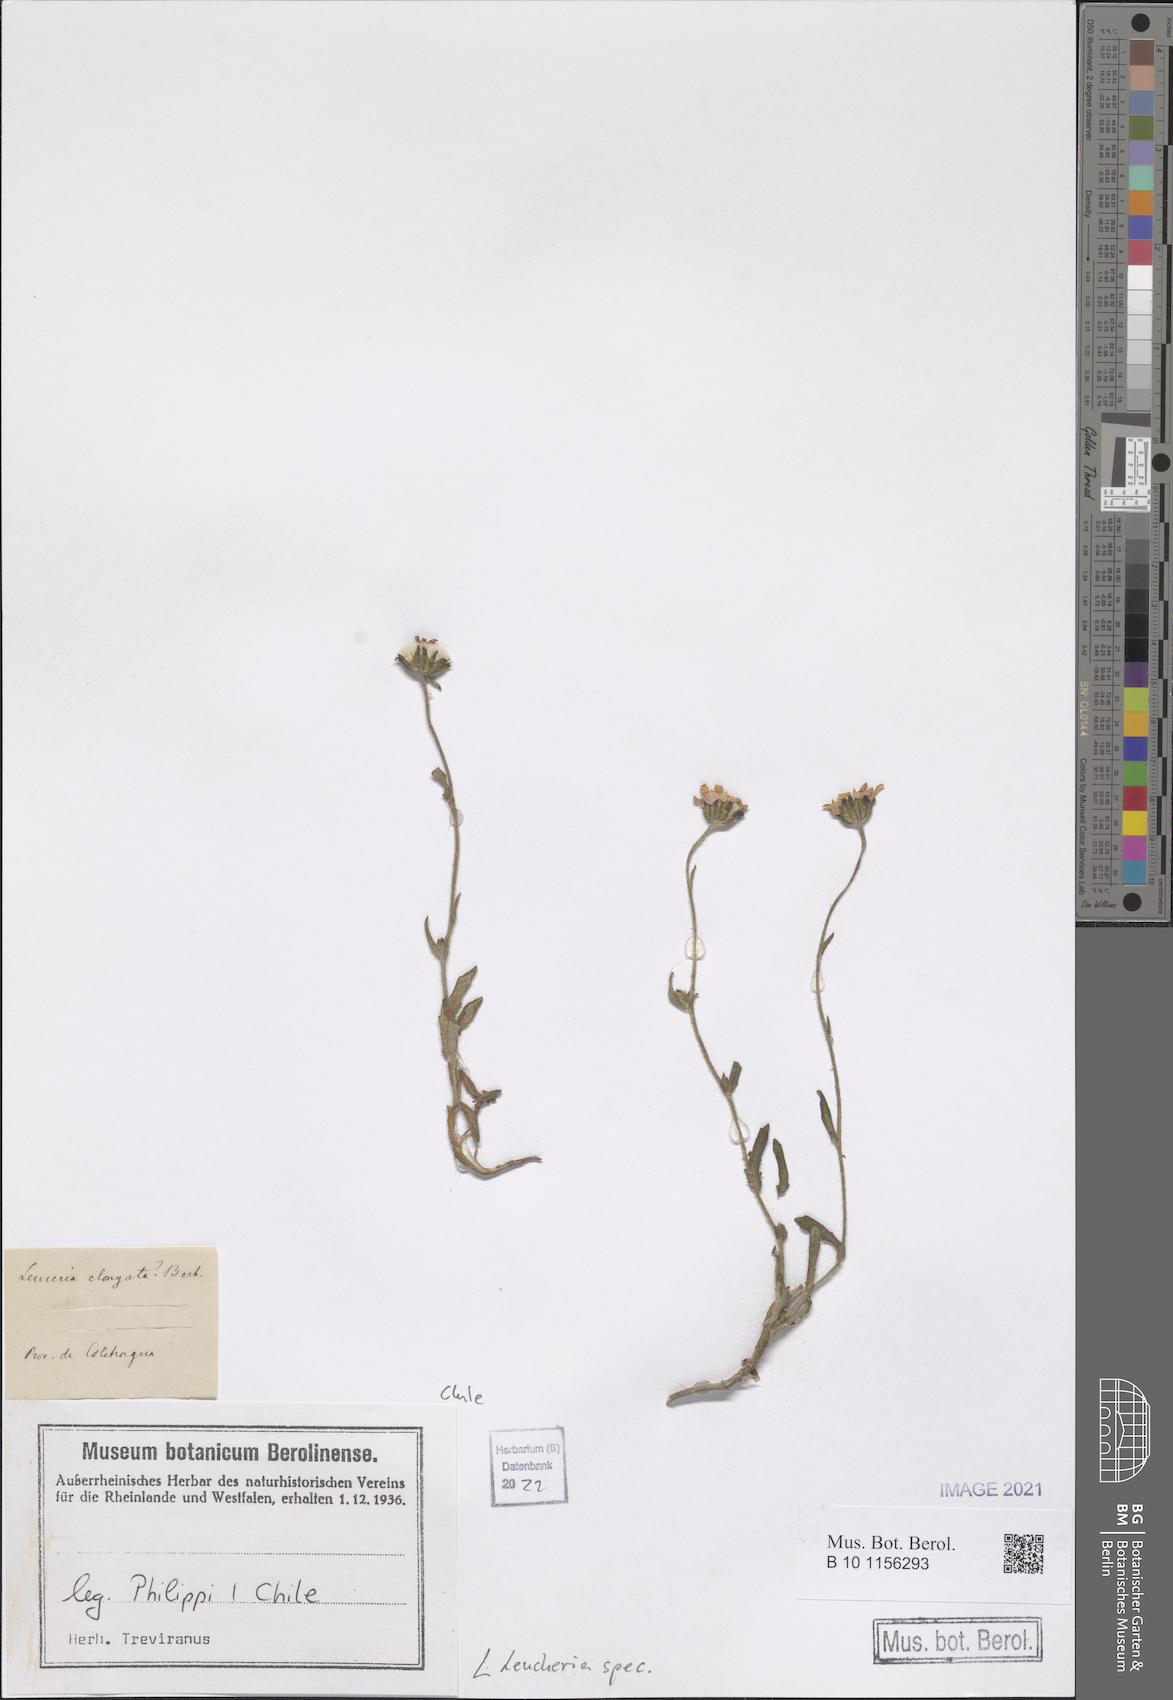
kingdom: Plantae
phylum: Tracheophyta
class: Magnoliopsida
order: Asterales
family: Asteraceae
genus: Leucheria
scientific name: Leucheria
